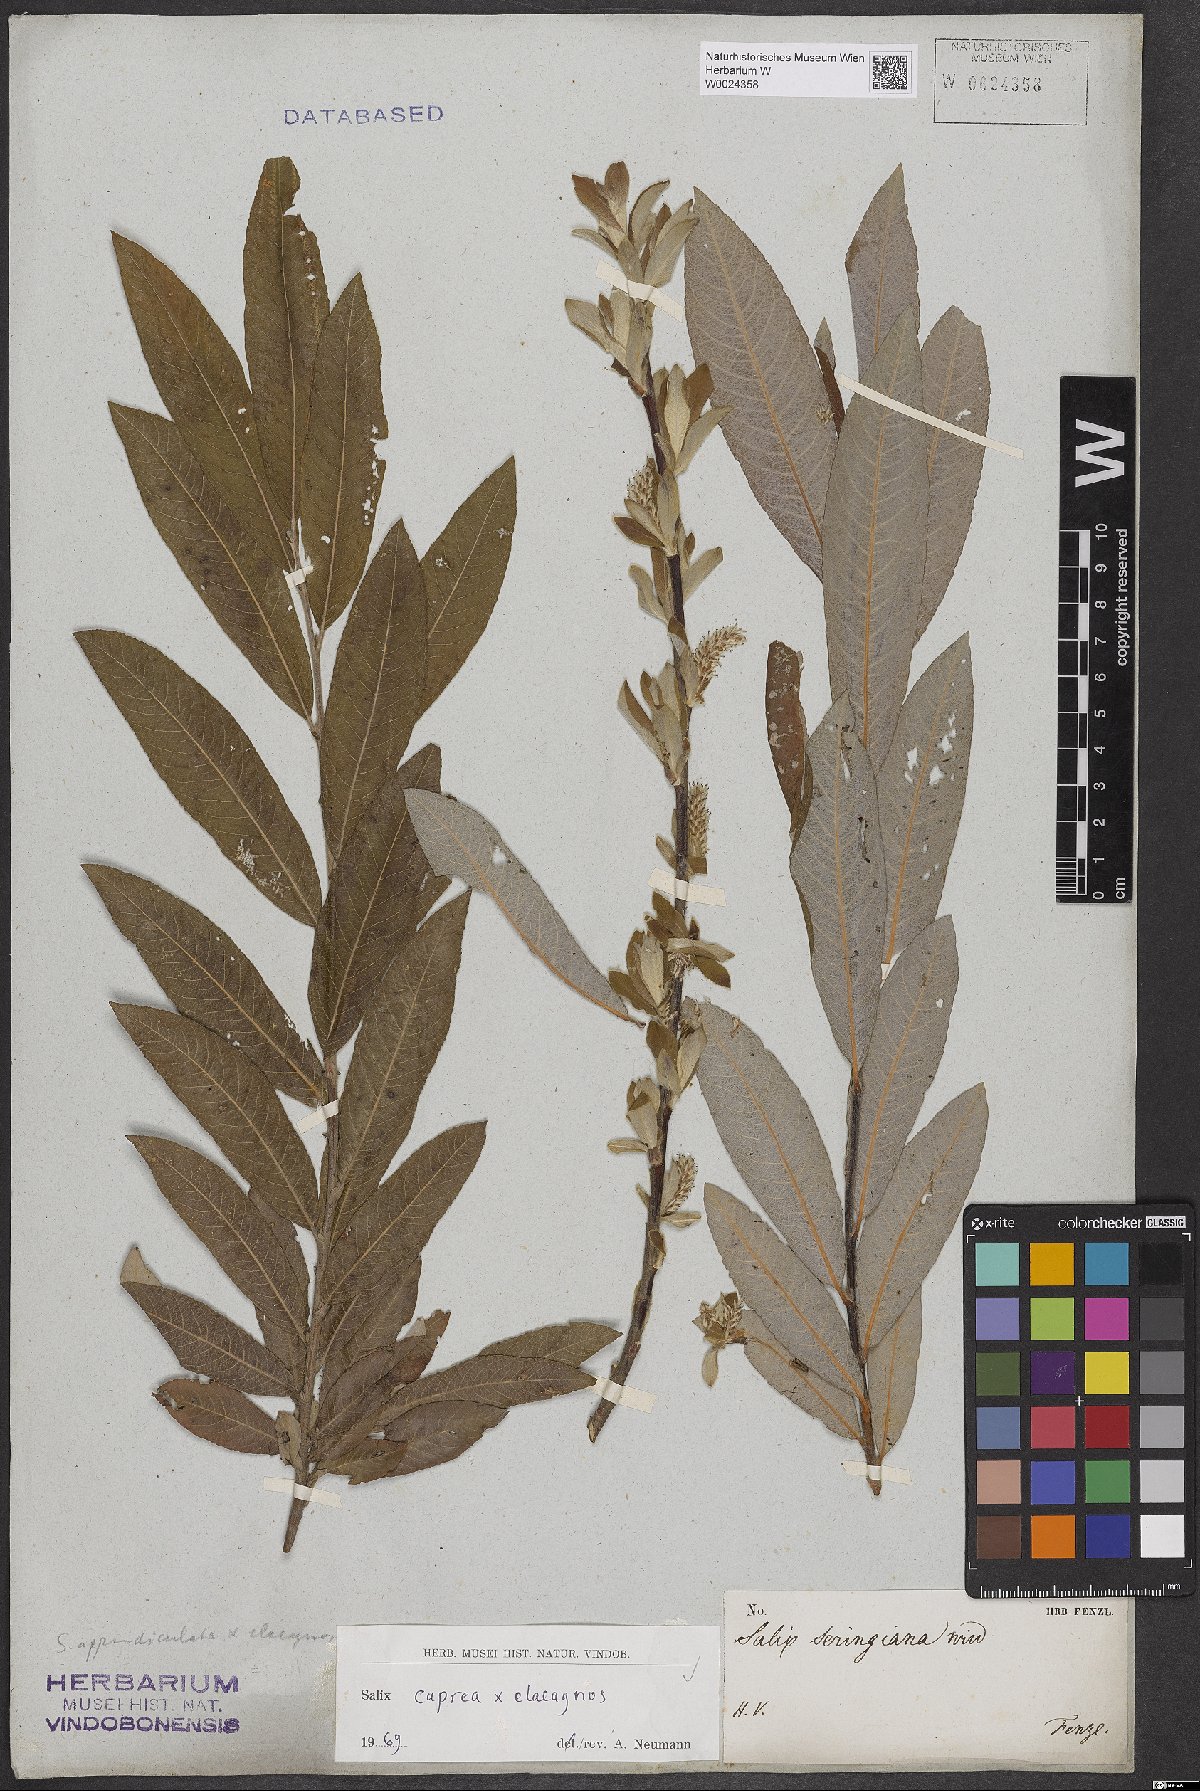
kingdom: Plantae
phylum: Tracheophyta
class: Magnoliopsida
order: Malpighiales
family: Salicaceae
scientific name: Salicaceae
